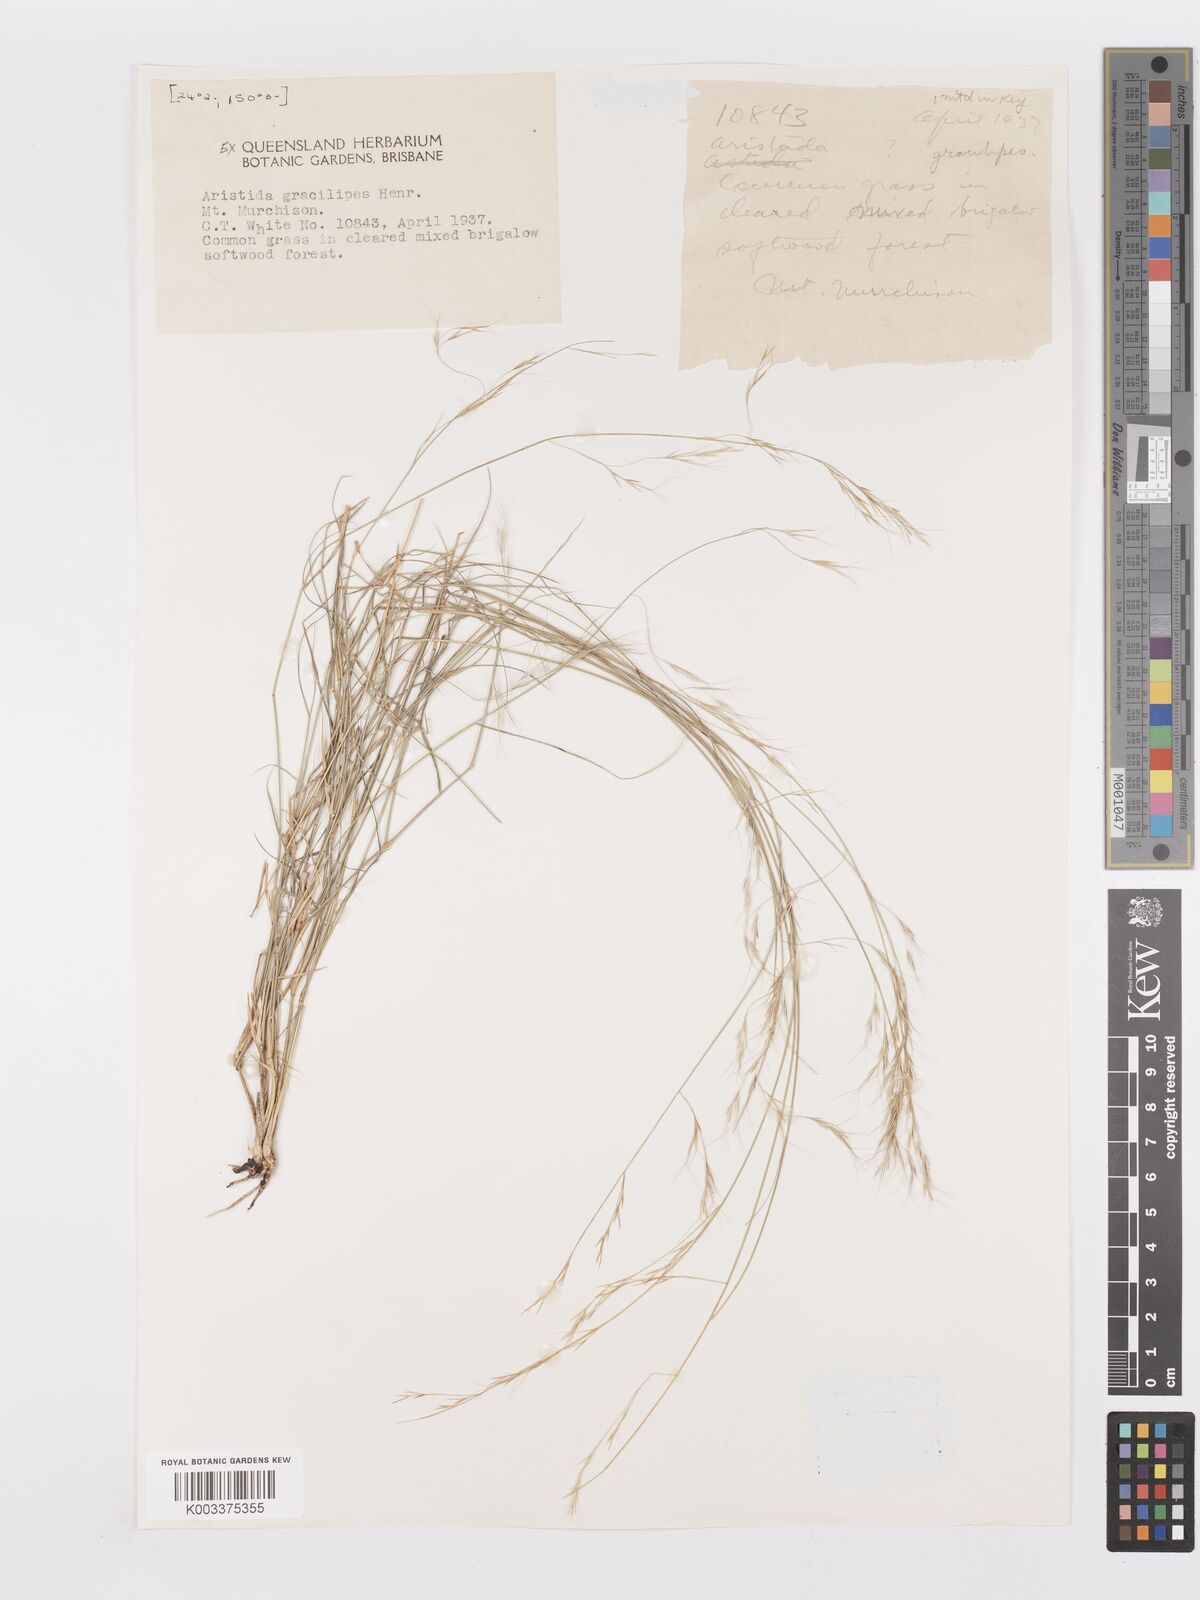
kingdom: Plantae
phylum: Tracheophyta
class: Liliopsida
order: Poales
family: Poaceae
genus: Aristida
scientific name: Aristida gracilipes
